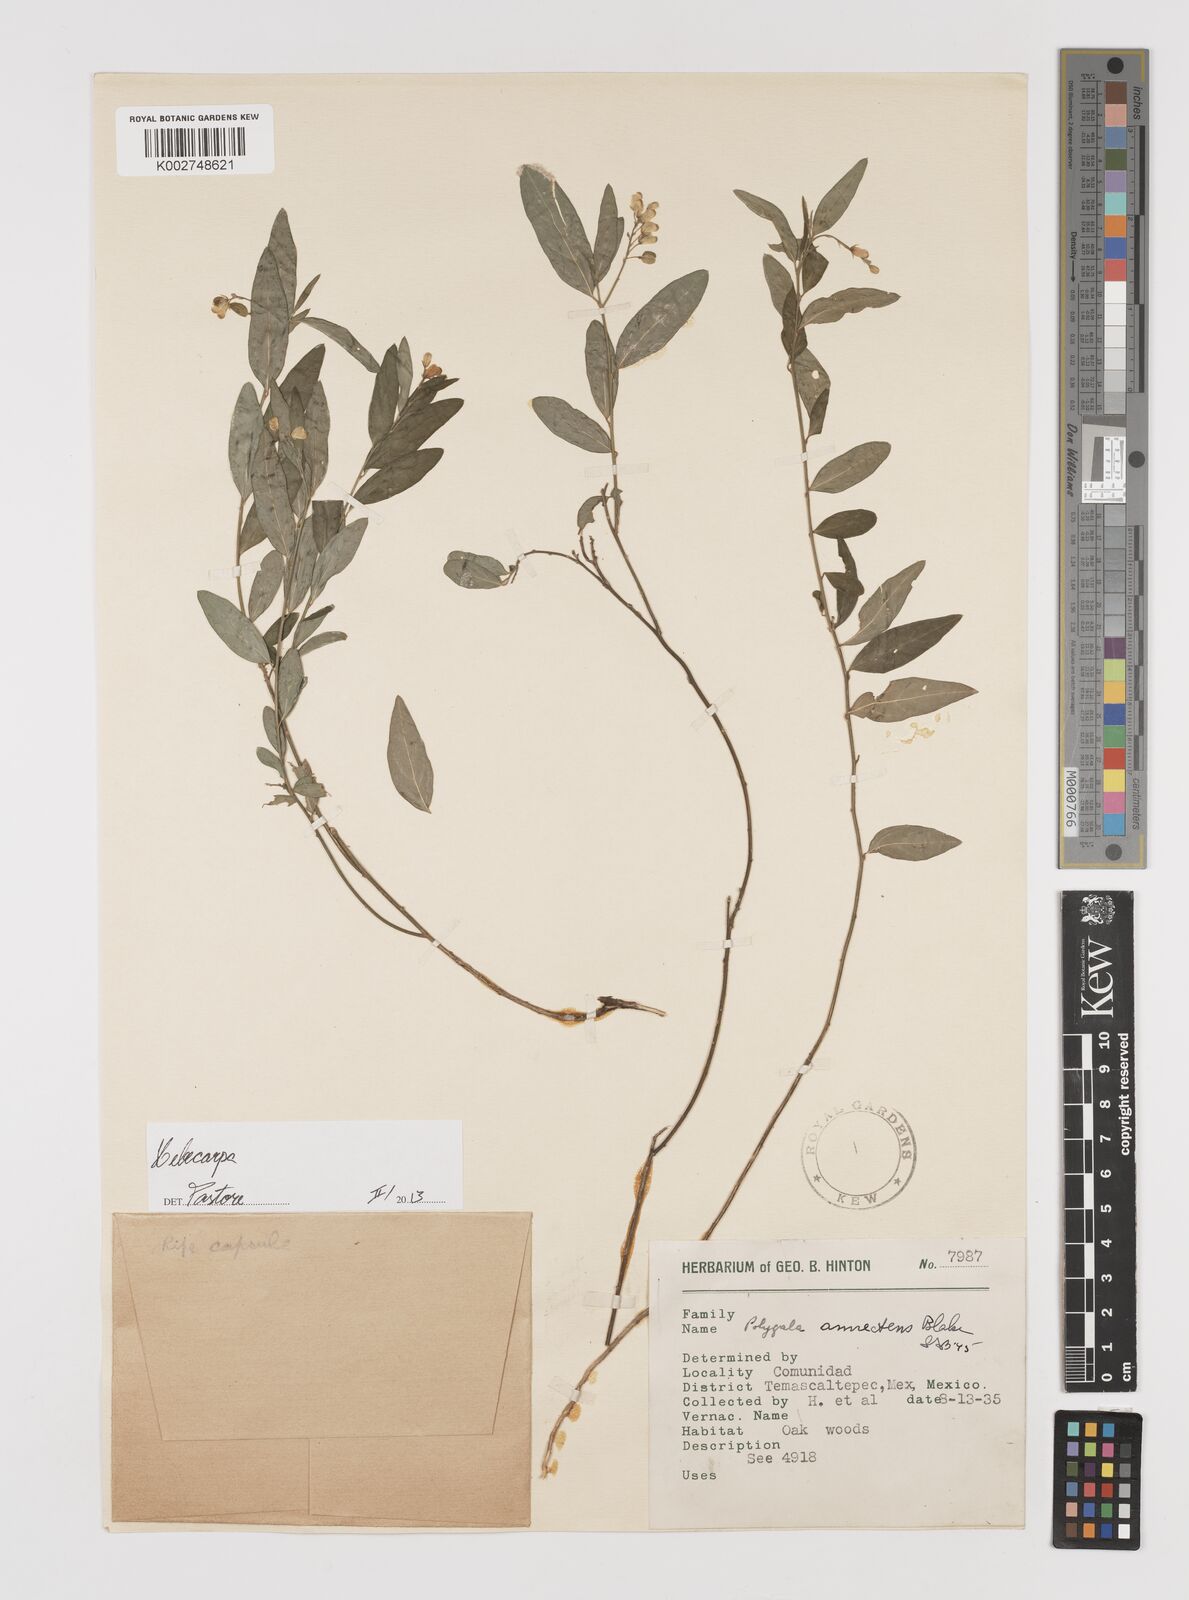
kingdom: Plantae
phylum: Tracheophyta
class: Magnoliopsida
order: Fabales
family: Polygalaceae
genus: Hebecarpa
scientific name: Hebecarpa
